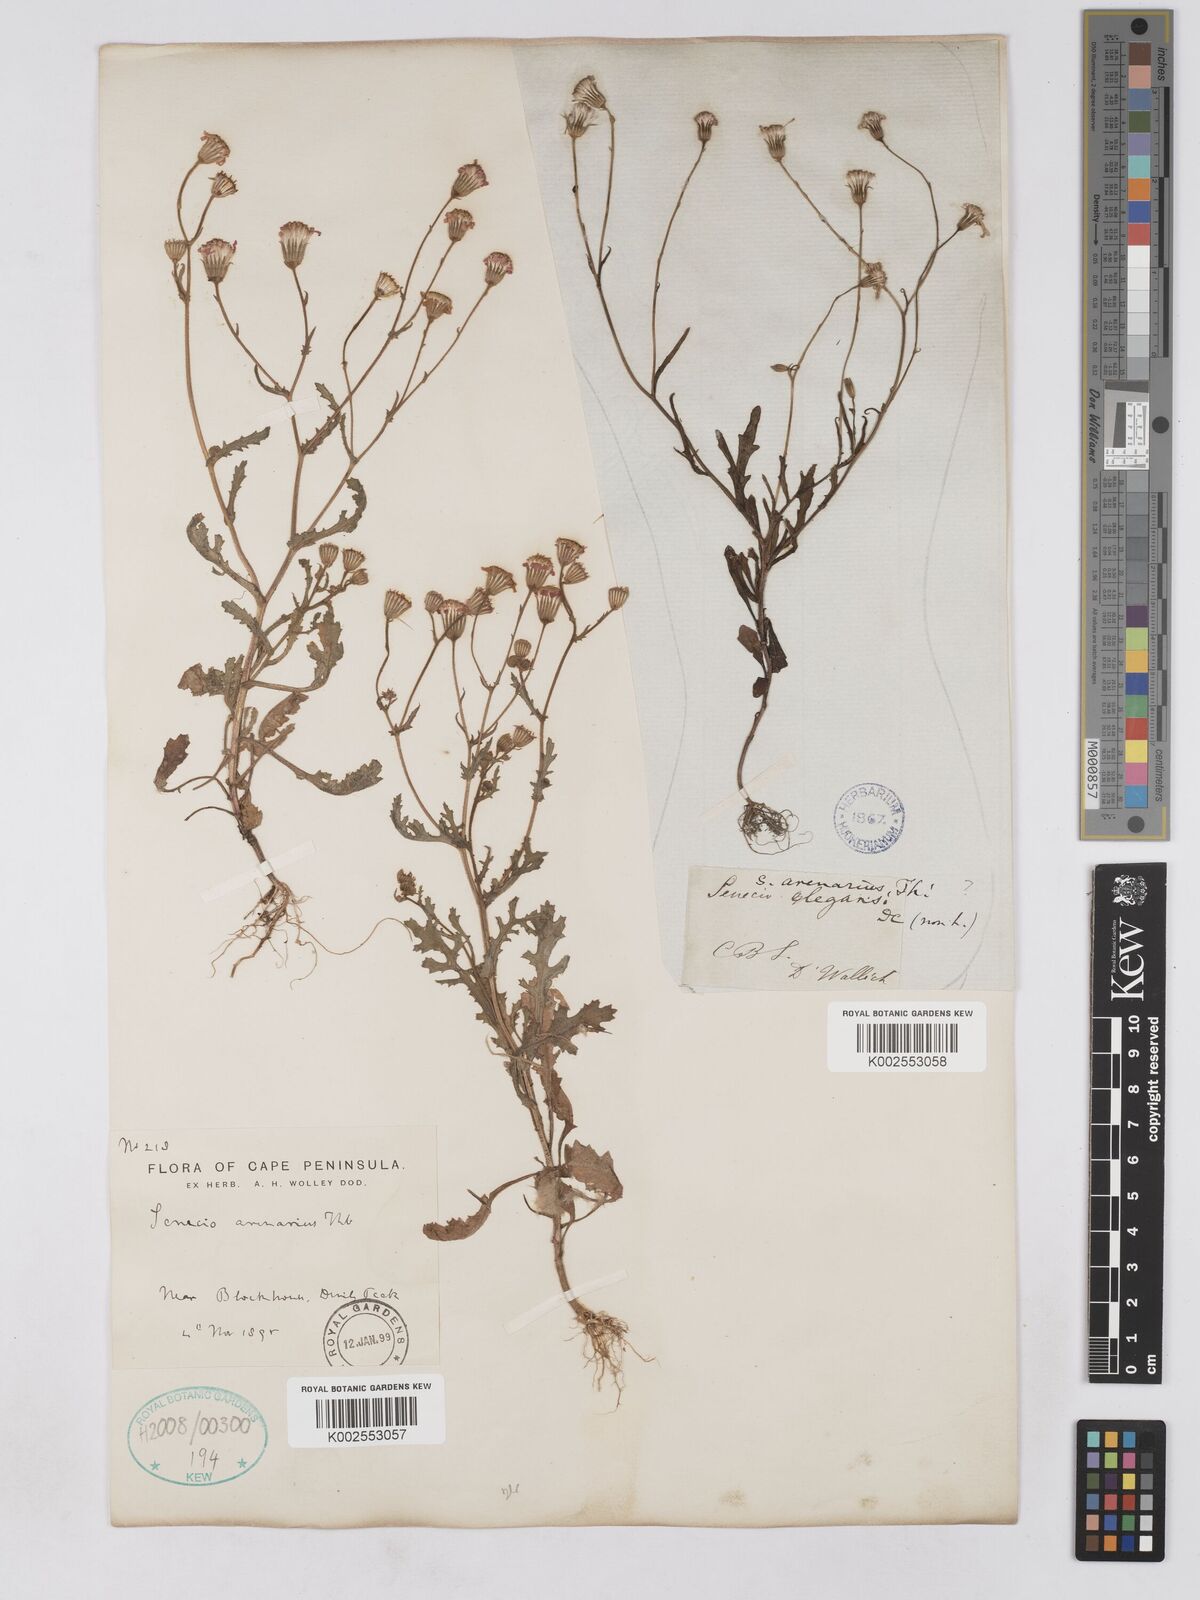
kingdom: Plantae
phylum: Tracheophyta
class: Magnoliopsida
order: Asterales
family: Asteraceae
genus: Senecio
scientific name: Senecio arenarius
